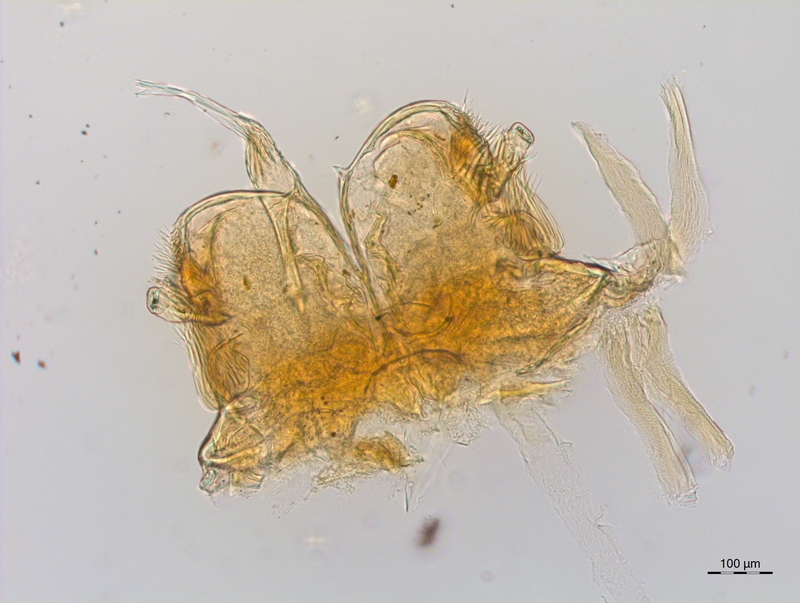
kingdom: Animalia
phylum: Arthropoda
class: Diplopoda
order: Chordeumatida
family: Craspedosomatidae
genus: Craspedosoma
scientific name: Craspedosoma slavum
